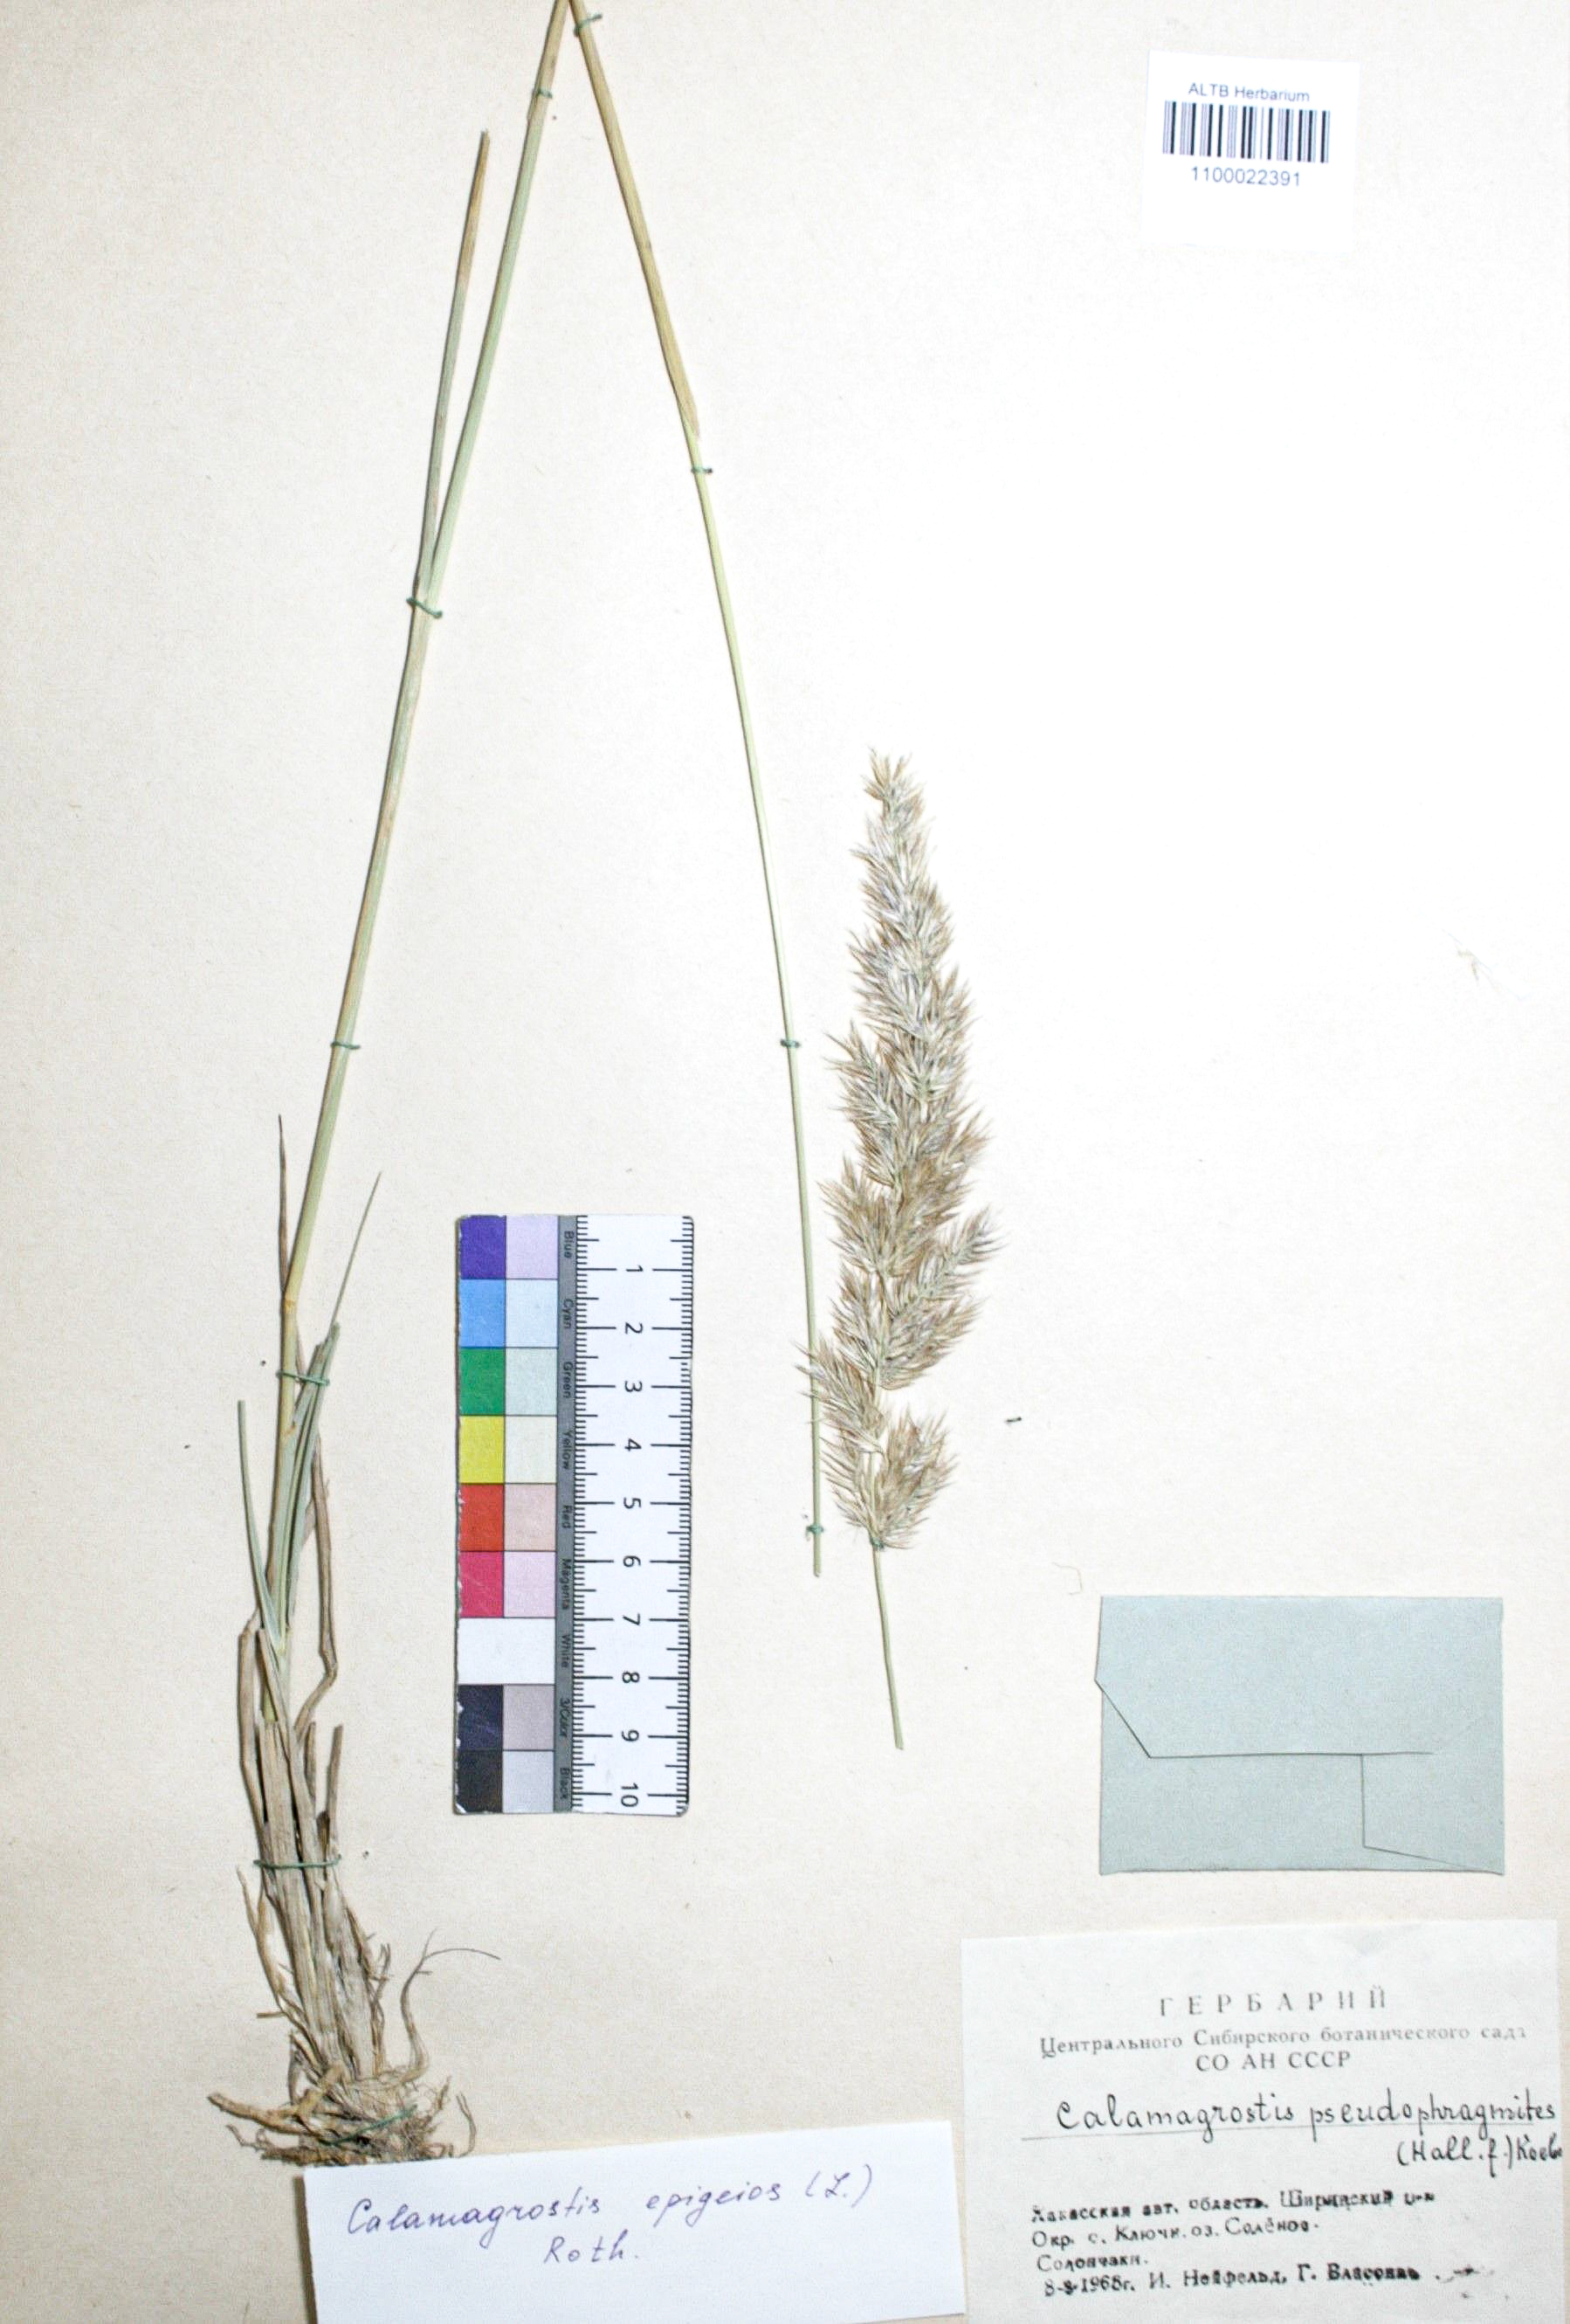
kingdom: Plantae
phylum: Tracheophyta
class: Liliopsida
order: Poales
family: Poaceae
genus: Calamagrostis
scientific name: Calamagrostis epigejos
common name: Wood small-reed
